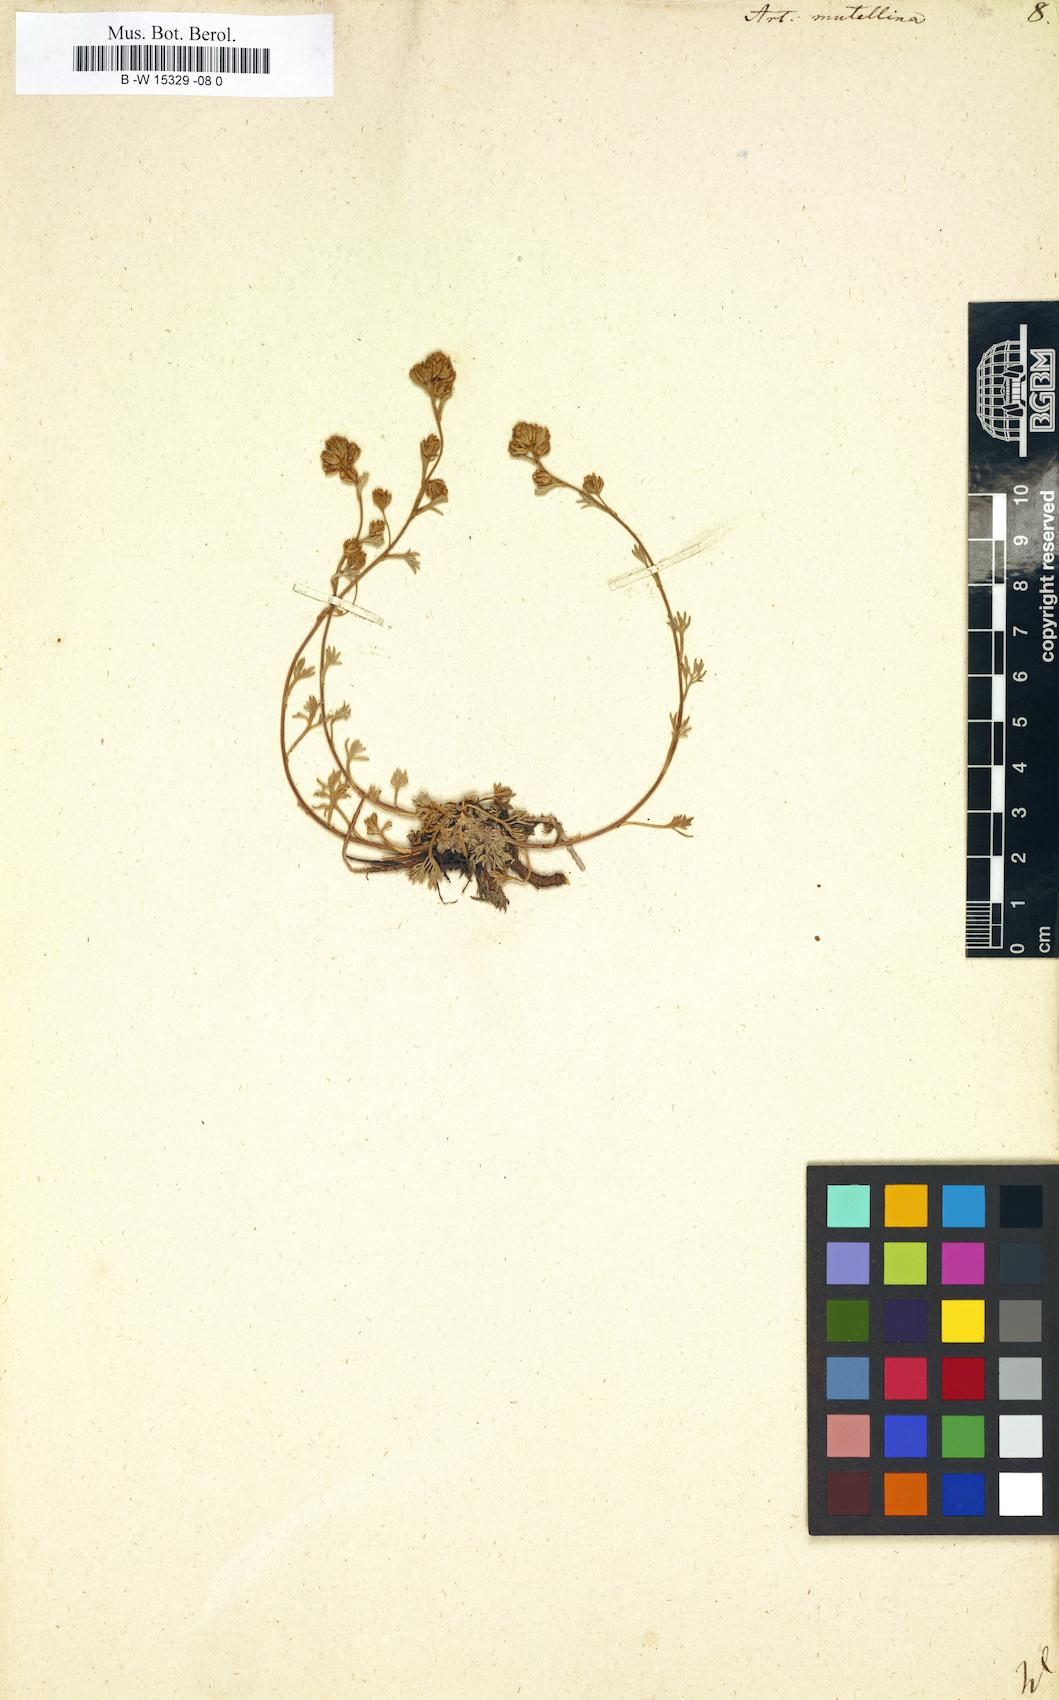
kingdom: Plantae
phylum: Tracheophyta
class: Magnoliopsida
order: Asterales
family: Asteraceae
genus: Artemisia
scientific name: Artemisia mutellina
